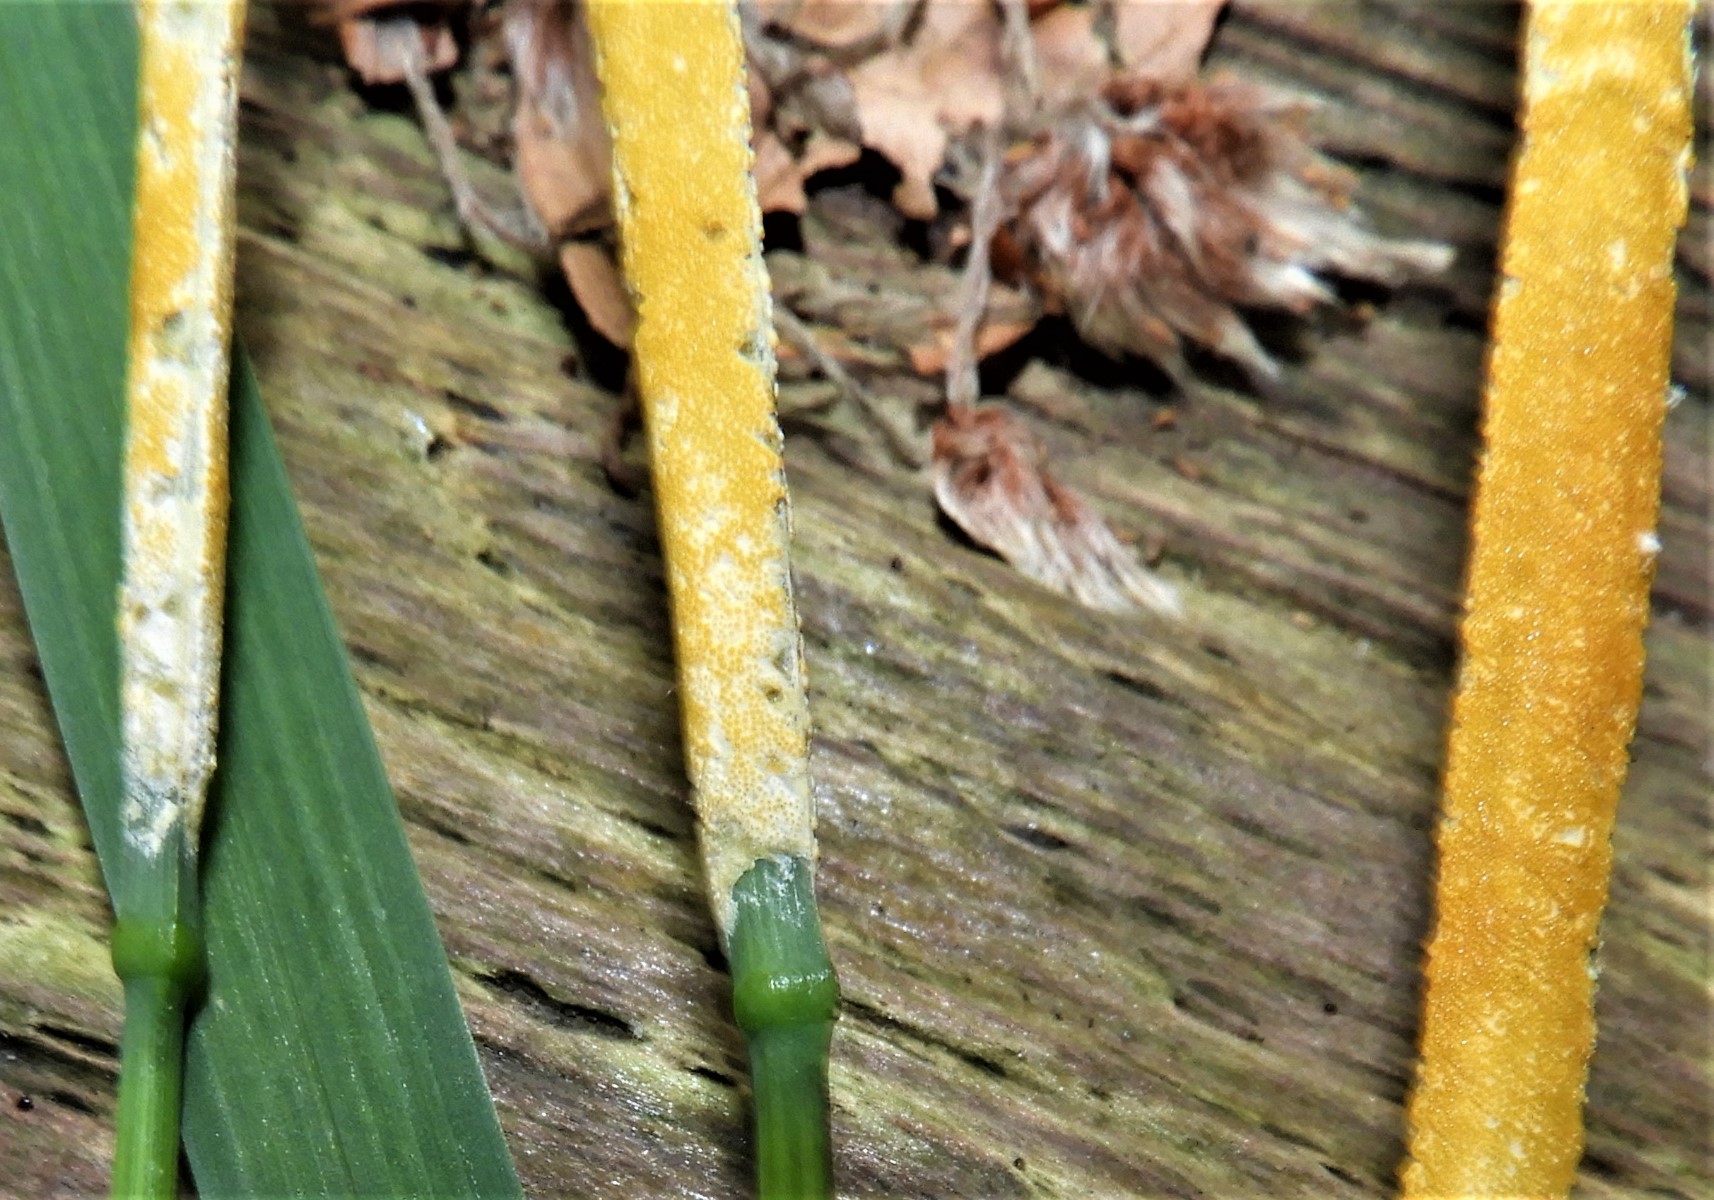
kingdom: Fungi
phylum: Ascomycota
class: Sordariomycetes
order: Hypocreales
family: Clavicipitaceae
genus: Epichloe
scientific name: Epichloe
